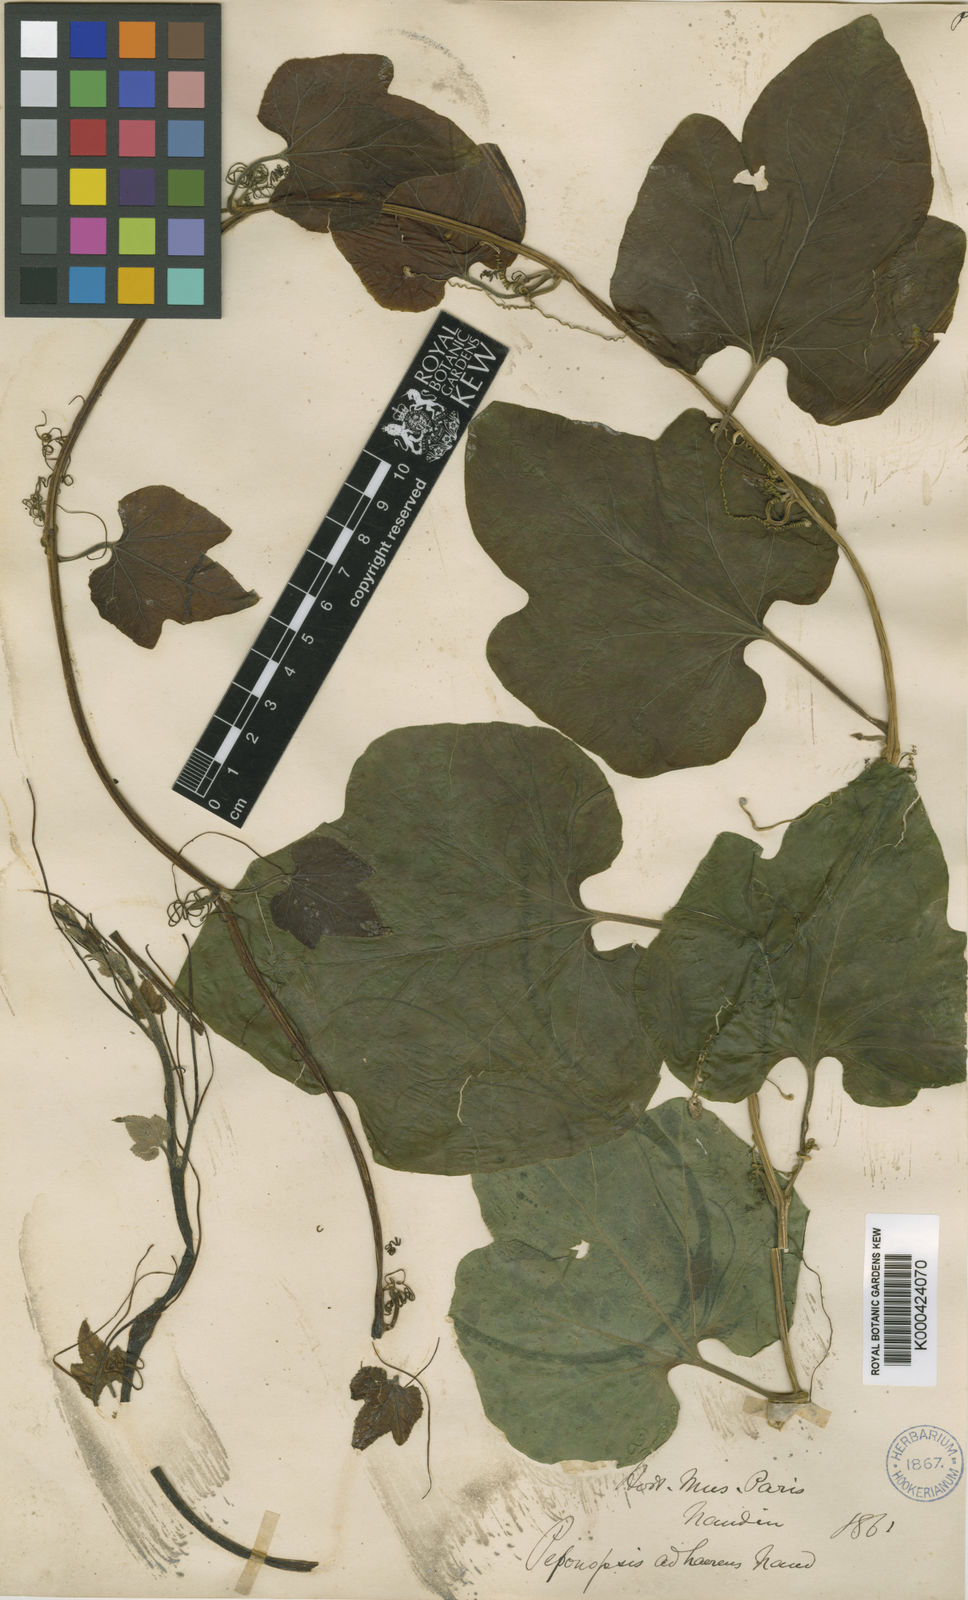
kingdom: Plantae
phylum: Tracheophyta
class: Magnoliopsida
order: Cucurbitales
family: Cucurbitaceae
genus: Peponopsis
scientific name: Peponopsis adhaerens
